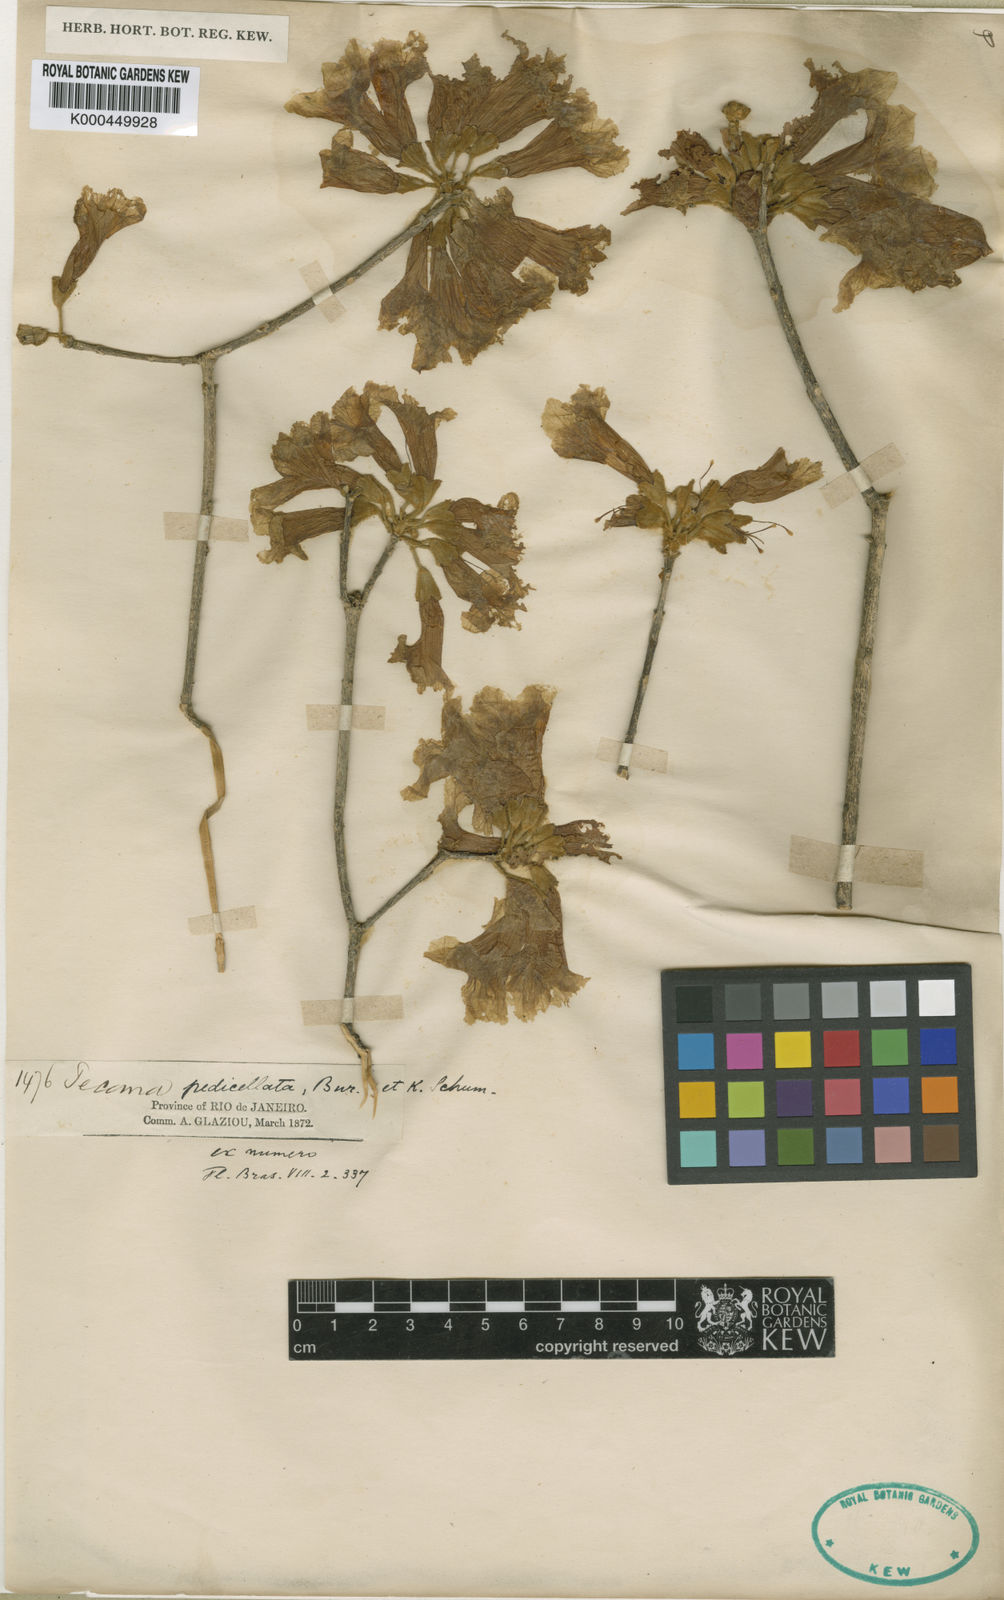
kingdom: Plantae
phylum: Tracheophyta
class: Magnoliopsida
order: Lamiales
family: Bignoniaceae
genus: Handroanthus
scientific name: Handroanthus pedicellatus
